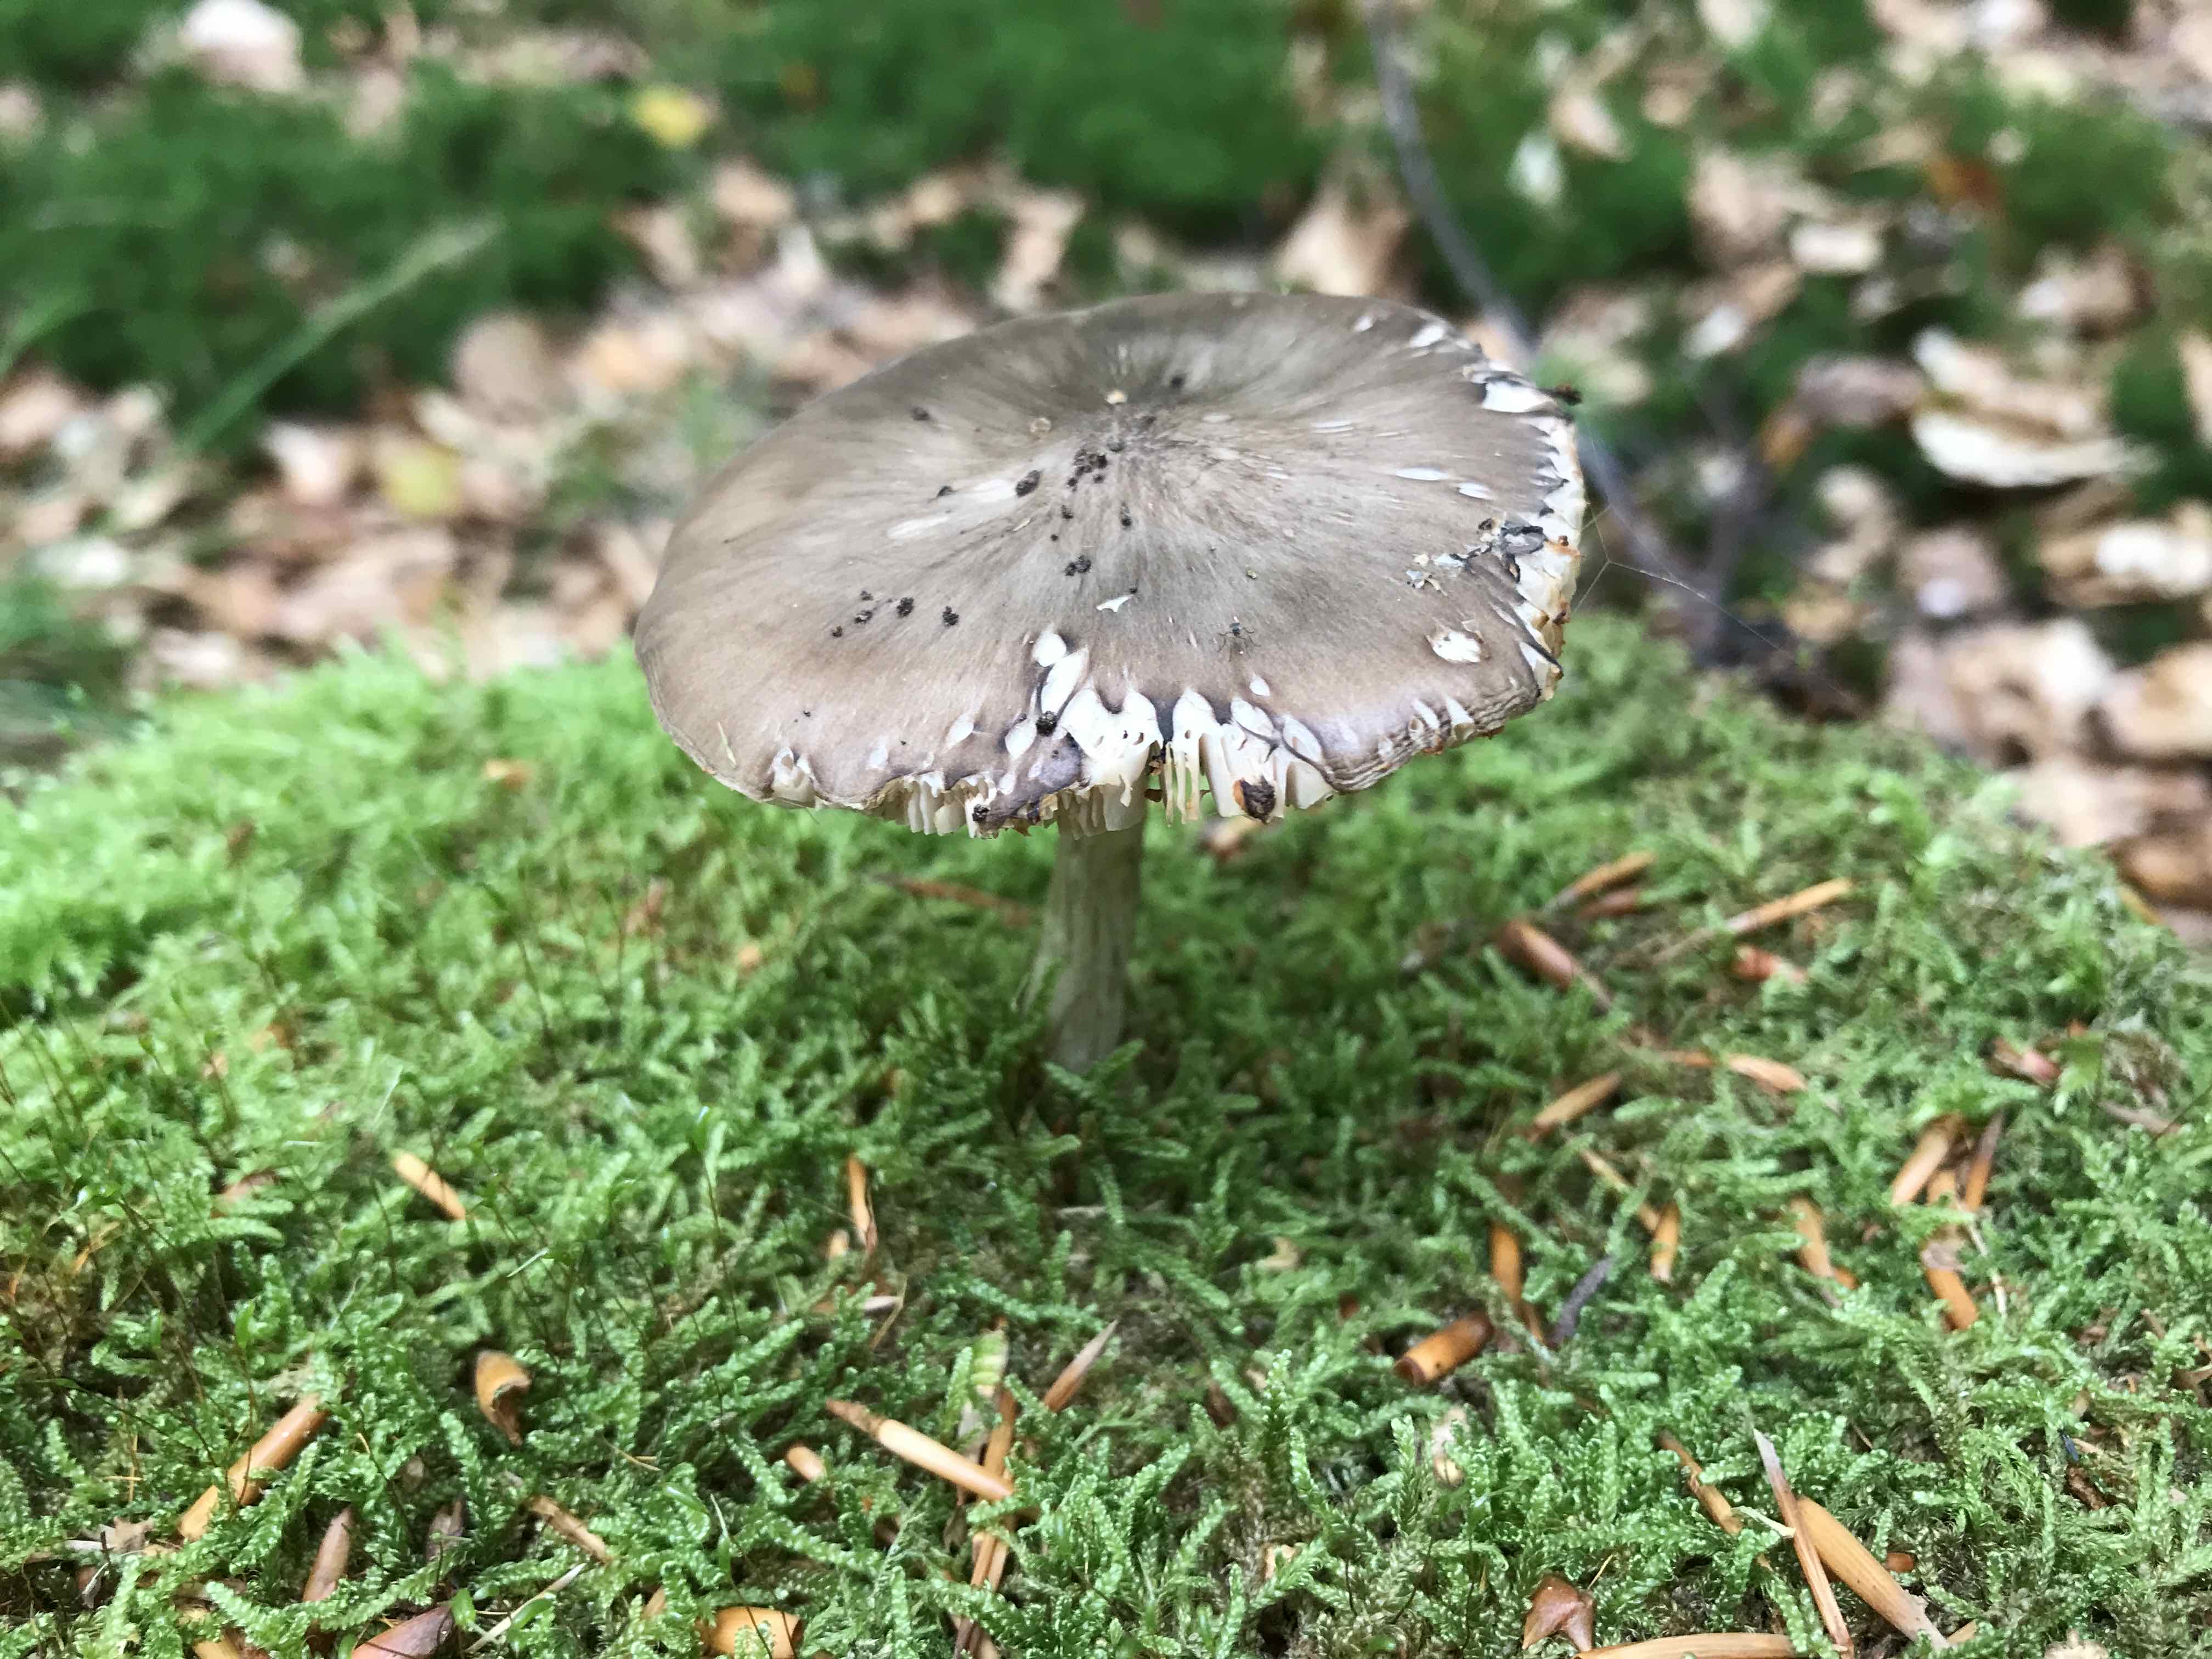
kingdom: Fungi
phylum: Basidiomycota
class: Agaricomycetes
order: Agaricales
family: Pluteaceae
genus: Pluteus
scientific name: Pluteus cervinus
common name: sodfarvet skærmhat
